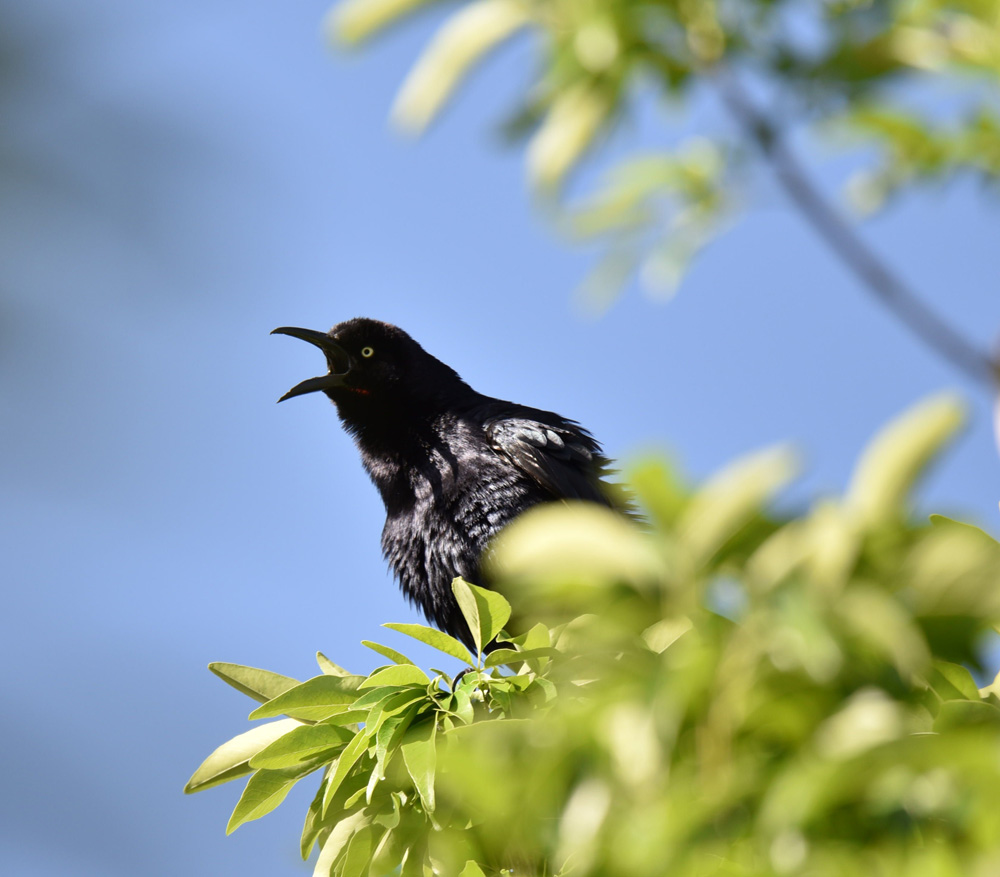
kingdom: Animalia
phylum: Chordata
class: Aves
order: Passeriformes
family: Icteridae
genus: Quiscalus
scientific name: Quiscalus mexicanus
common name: Great-tailed grackle
